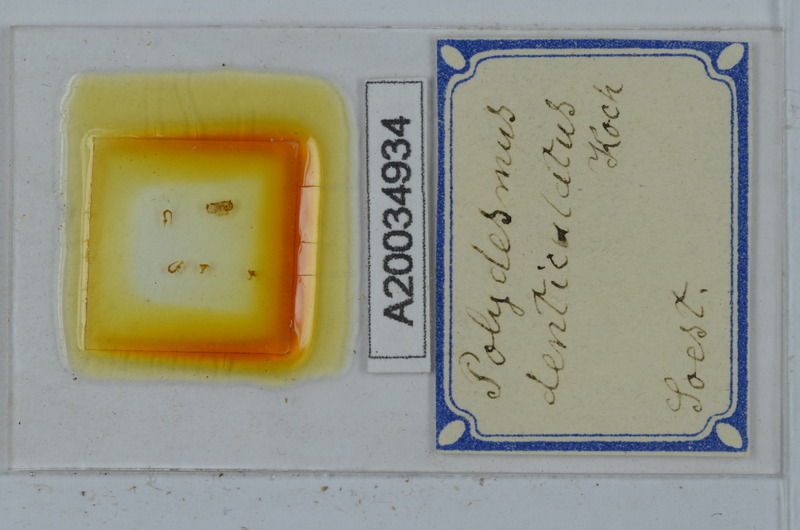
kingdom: Animalia
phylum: Arthropoda
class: Diplopoda
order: Polydesmida
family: Polydesmidae
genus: Polydesmus
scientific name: Polydesmus denticulatus
